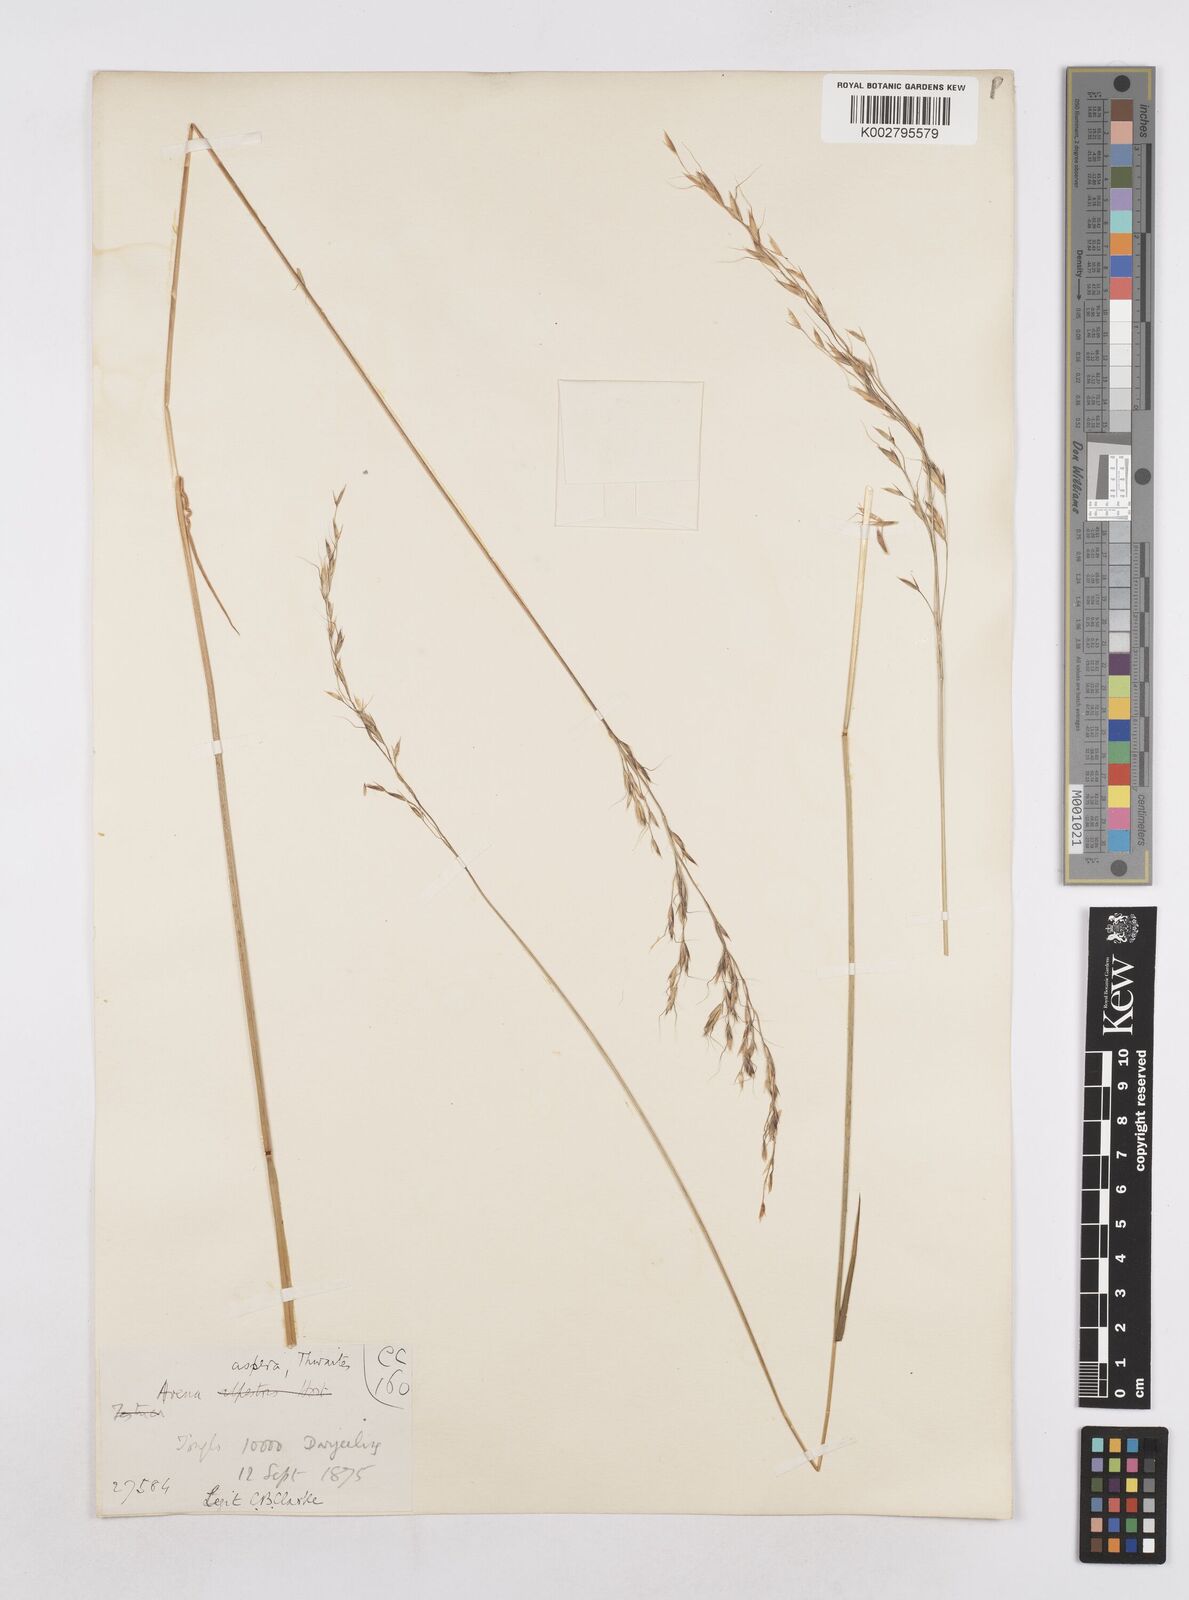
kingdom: Plantae
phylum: Tracheophyta
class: Liliopsida
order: Poales
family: Poaceae
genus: Trisetopsis
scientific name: Trisetopsis junghuhnii
